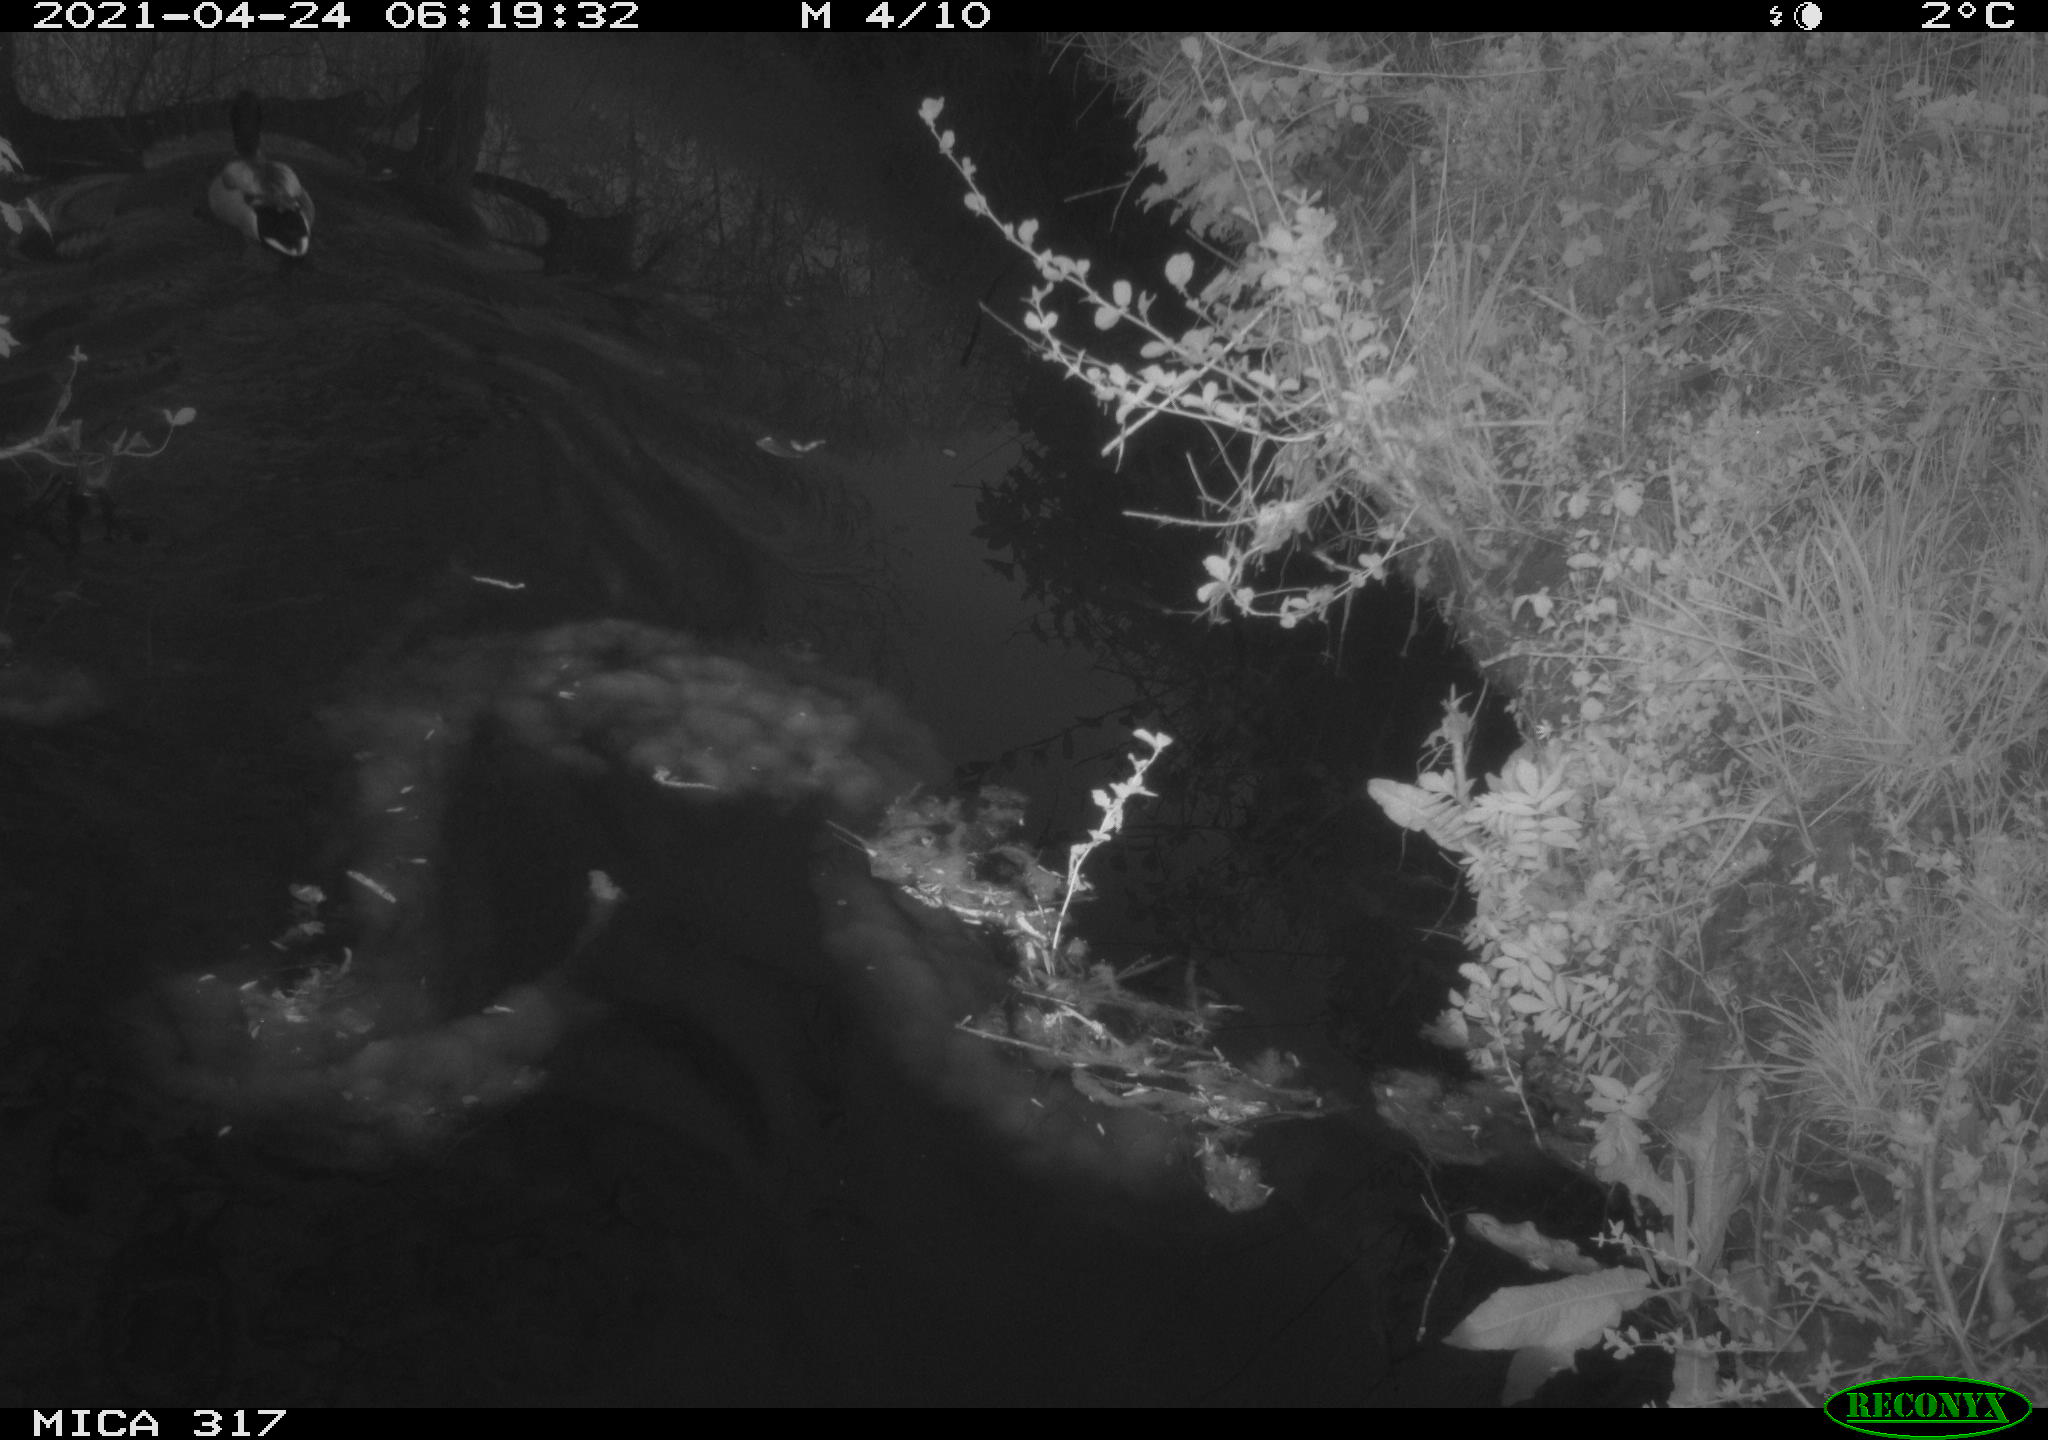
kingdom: Animalia
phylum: Chordata
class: Aves
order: Anseriformes
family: Anatidae
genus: Anas
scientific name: Anas
